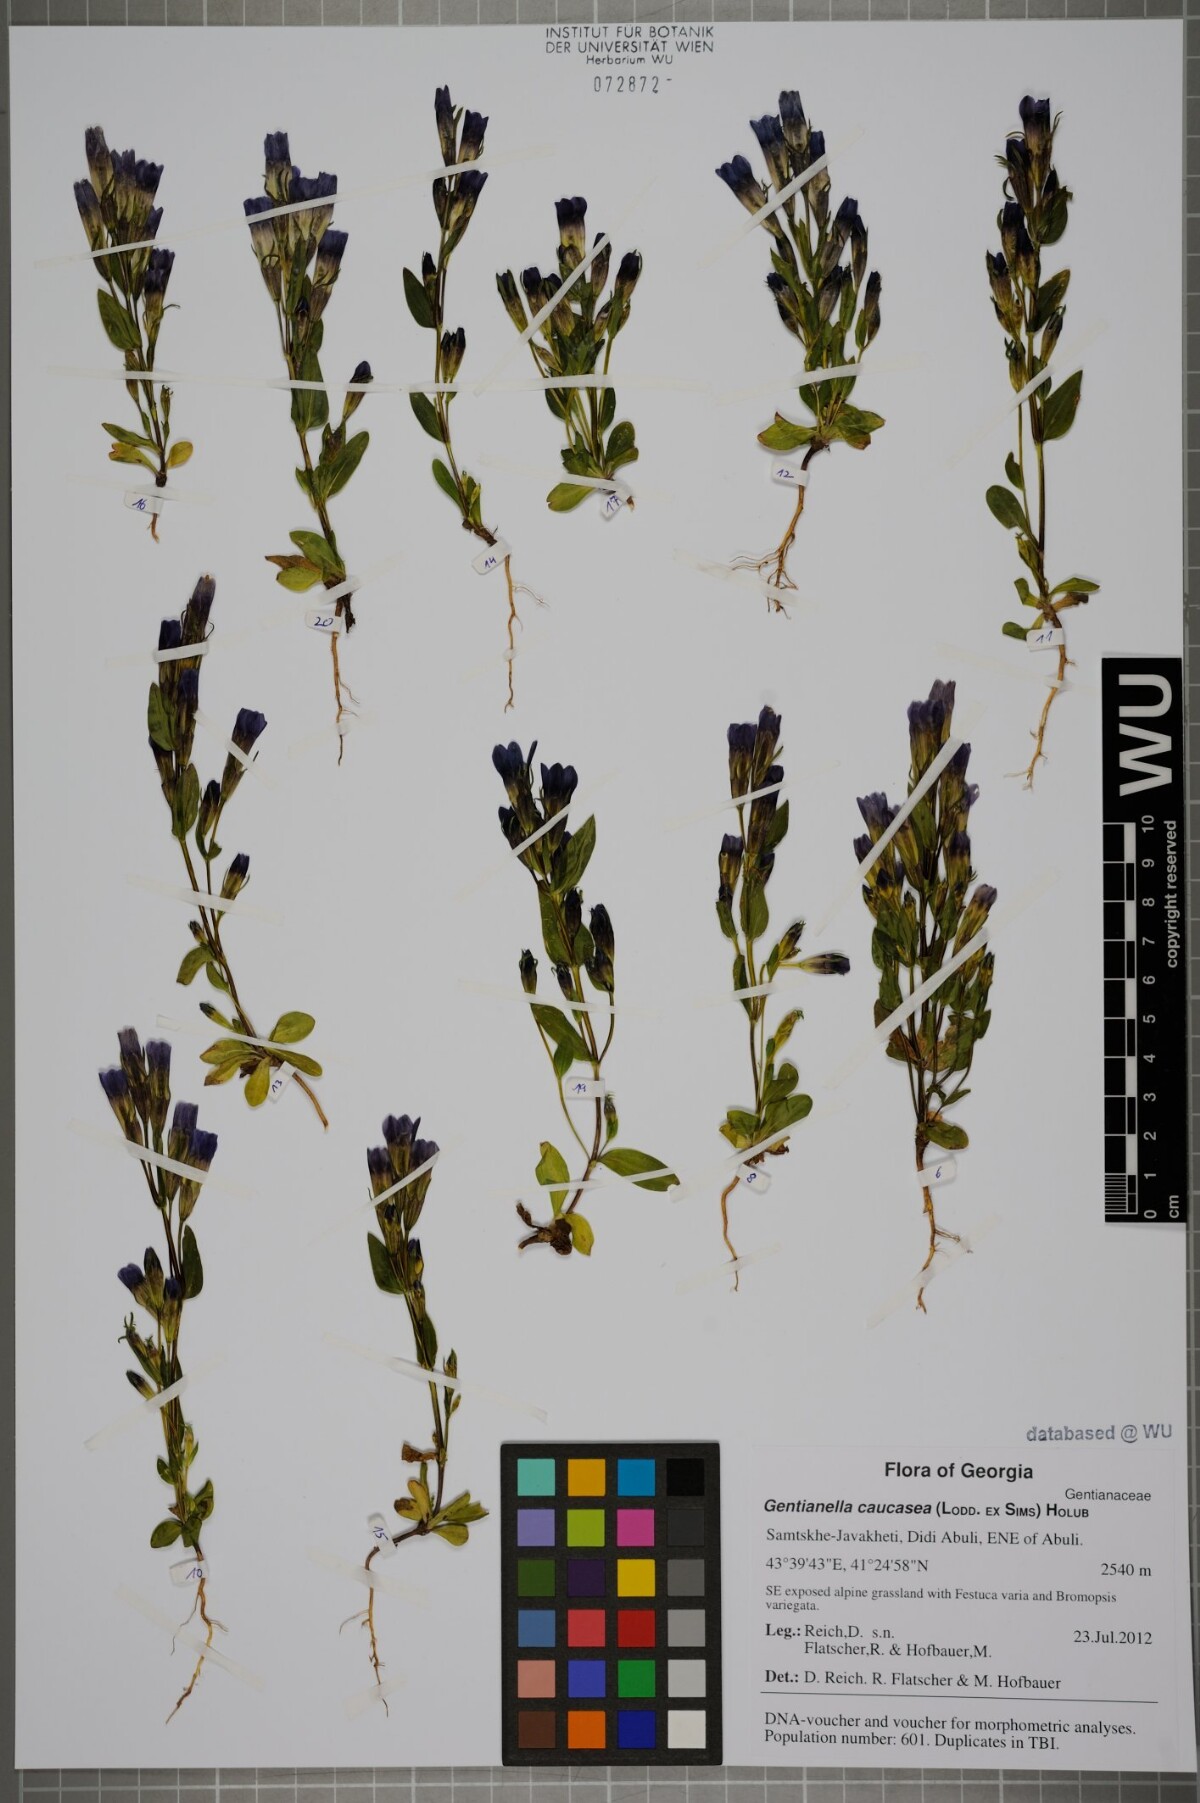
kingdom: Plantae
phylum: Tracheophyta
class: Magnoliopsida
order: Gentianales
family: Gentianaceae
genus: Gentianella
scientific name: Gentianella caucasea
